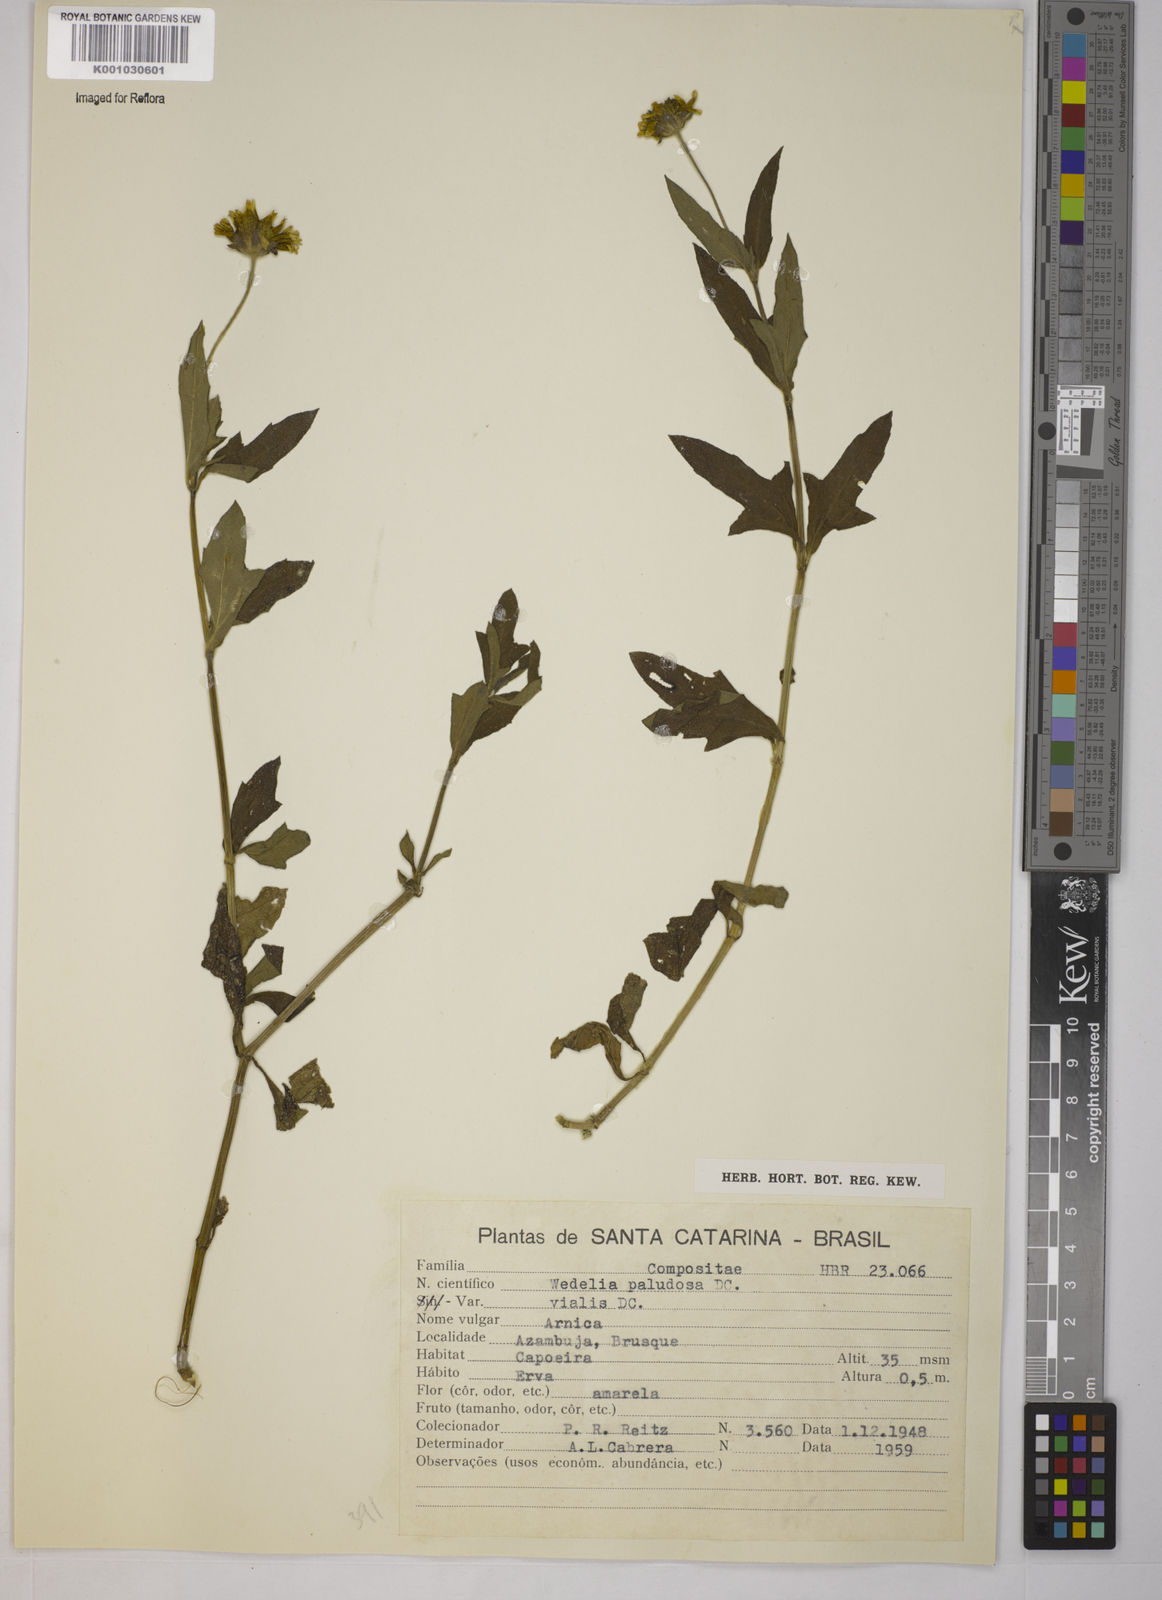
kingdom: Plantae
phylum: Tracheophyta
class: Magnoliopsida
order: Asterales
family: Asteraceae
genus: Sphagneticola
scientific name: Sphagneticola trilobata
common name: Bay biscayne creeping-oxeye
